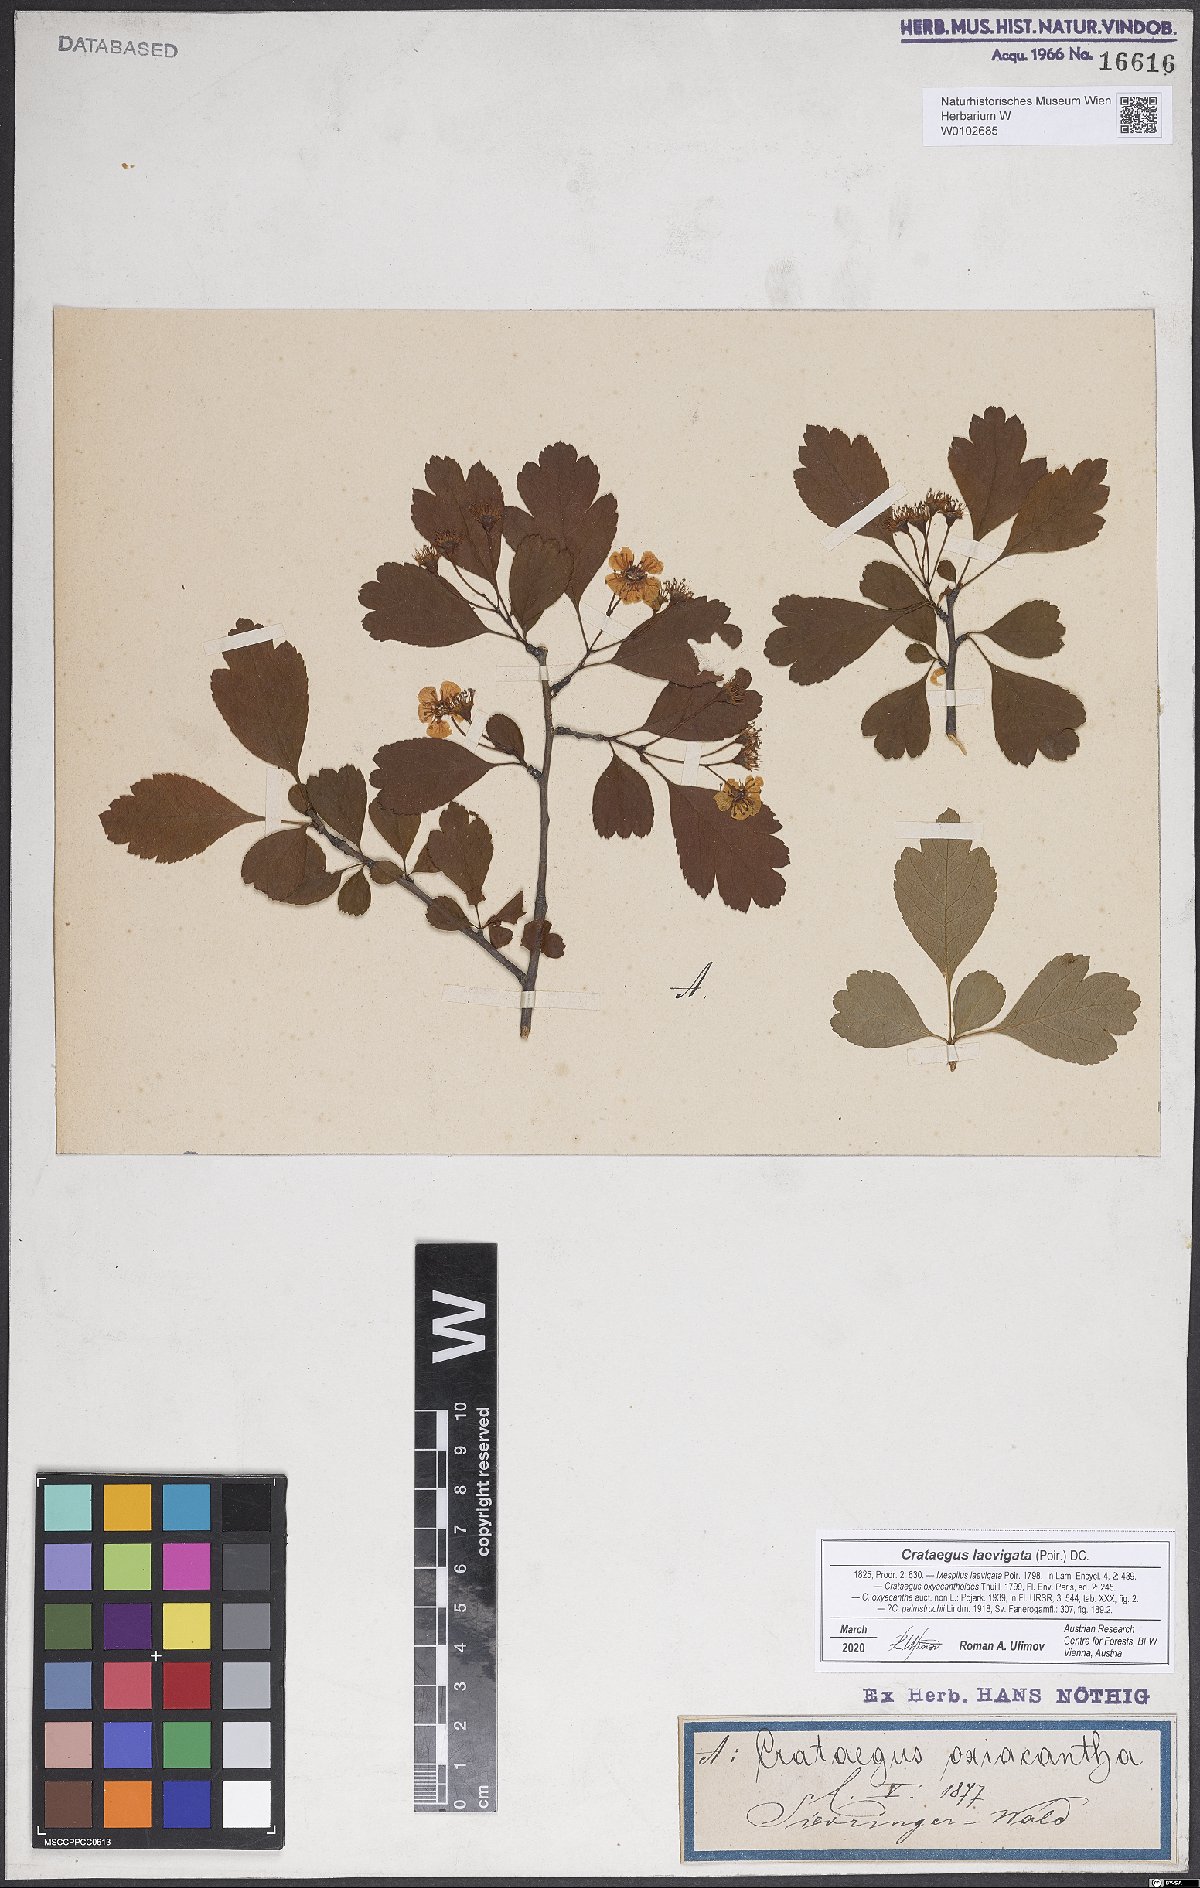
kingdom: Plantae
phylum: Tracheophyta
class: Magnoliopsida
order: Rosales
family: Rosaceae
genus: Crataegus
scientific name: Crataegus laevigata
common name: Midland hawthorn
